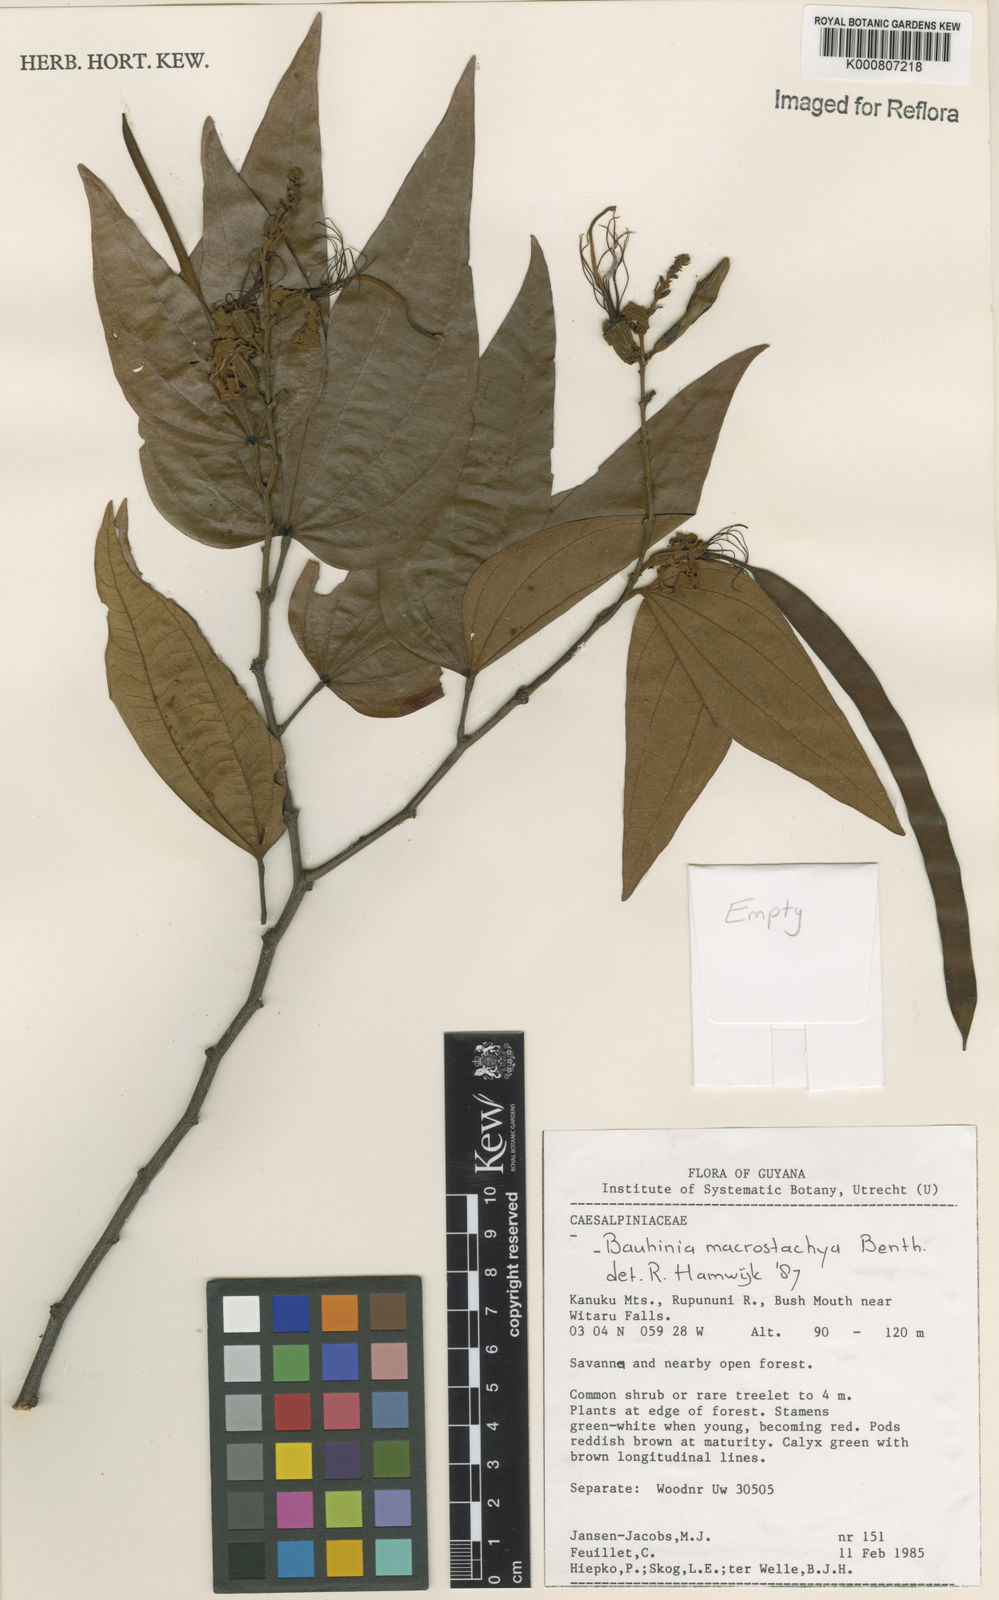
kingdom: Plantae
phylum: Tracheophyta
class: Magnoliopsida
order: Fabales
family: Fabaceae
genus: Bauhinia
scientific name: Bauhinia ungulata
